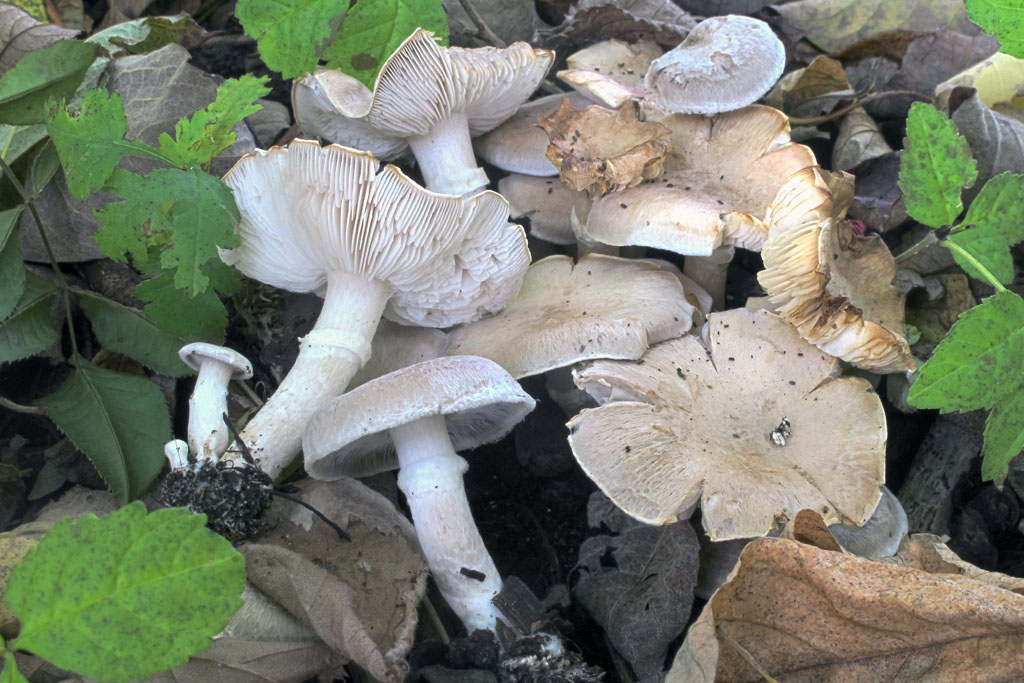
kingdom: Fungi
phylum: Basidiomycota
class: Agaricomycetes
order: Agaricales
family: Tricholomataceae
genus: Tricholoma
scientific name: Tricholoma cingulatum
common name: ring-ridderhat
